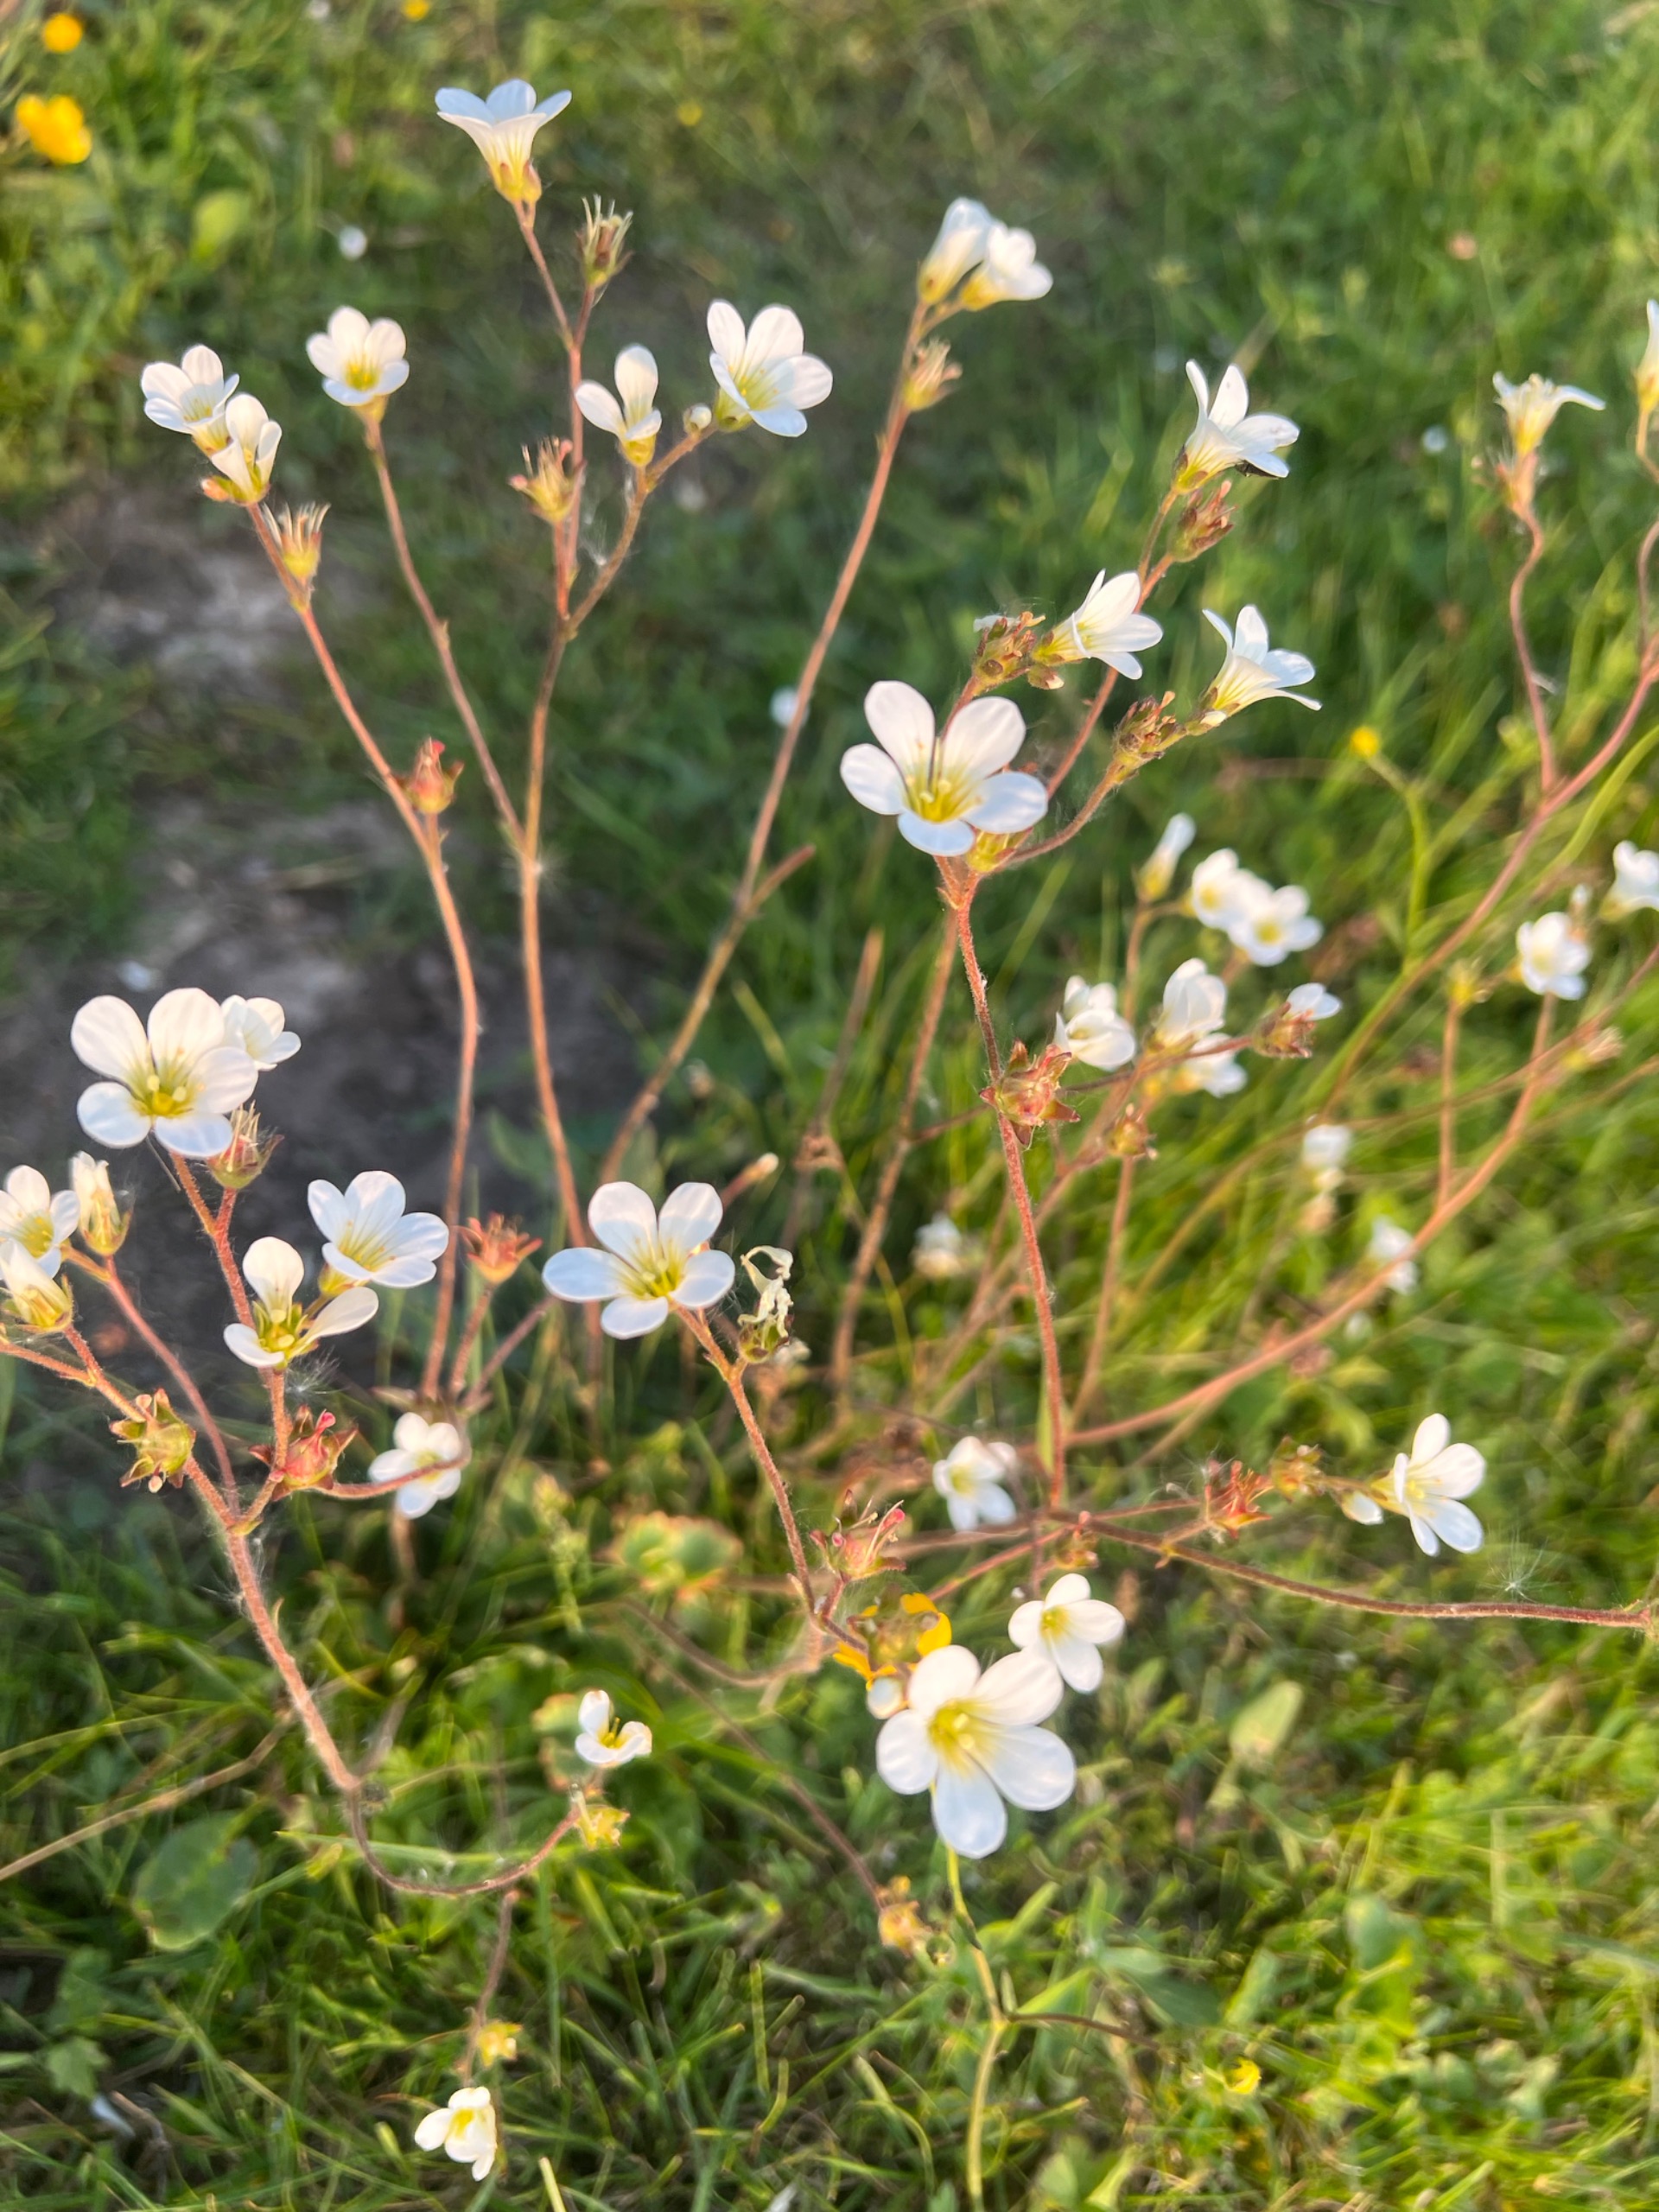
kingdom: Plantae
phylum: Tracheophyta
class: Magnoliopsida
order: Saxifragales
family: Saxifragaceae
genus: Saxifraga
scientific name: Saxifraga granulata
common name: Kornet stenbræk
